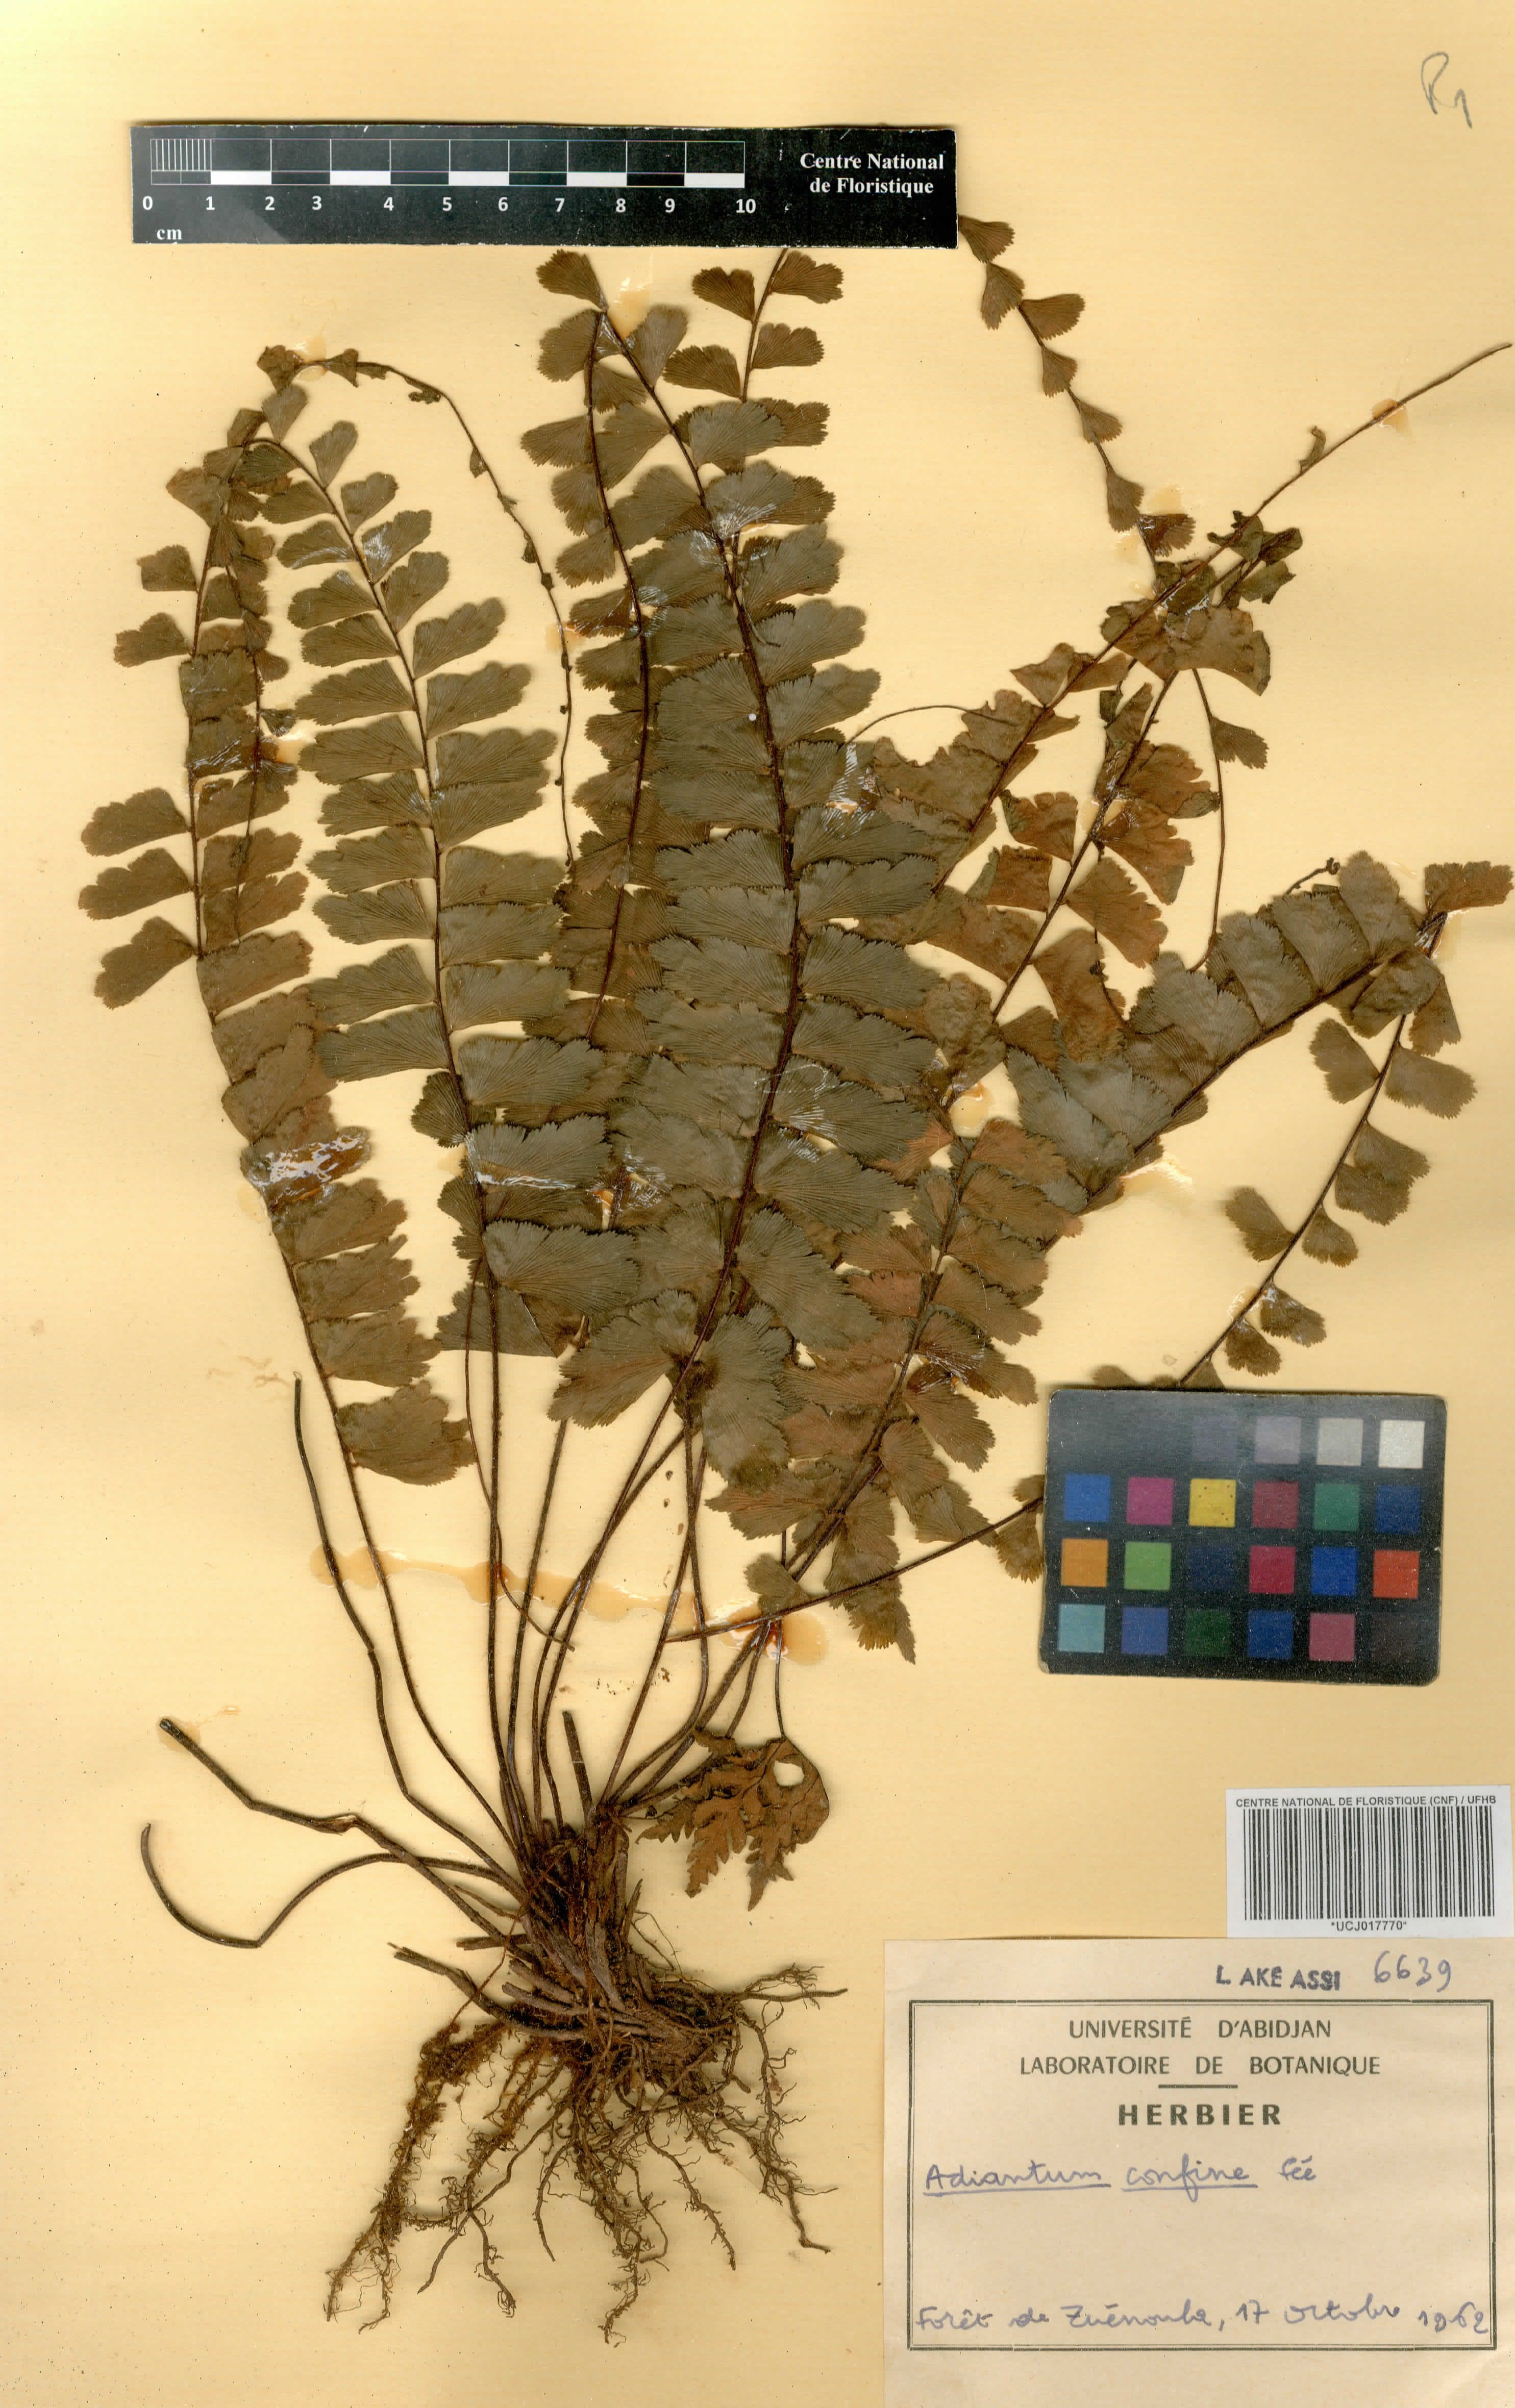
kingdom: Plantae
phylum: Tracheophyta
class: Polypodiopsida
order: Polypodiales
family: Pteridaceae
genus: Adiantum
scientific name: Adiantum confine
